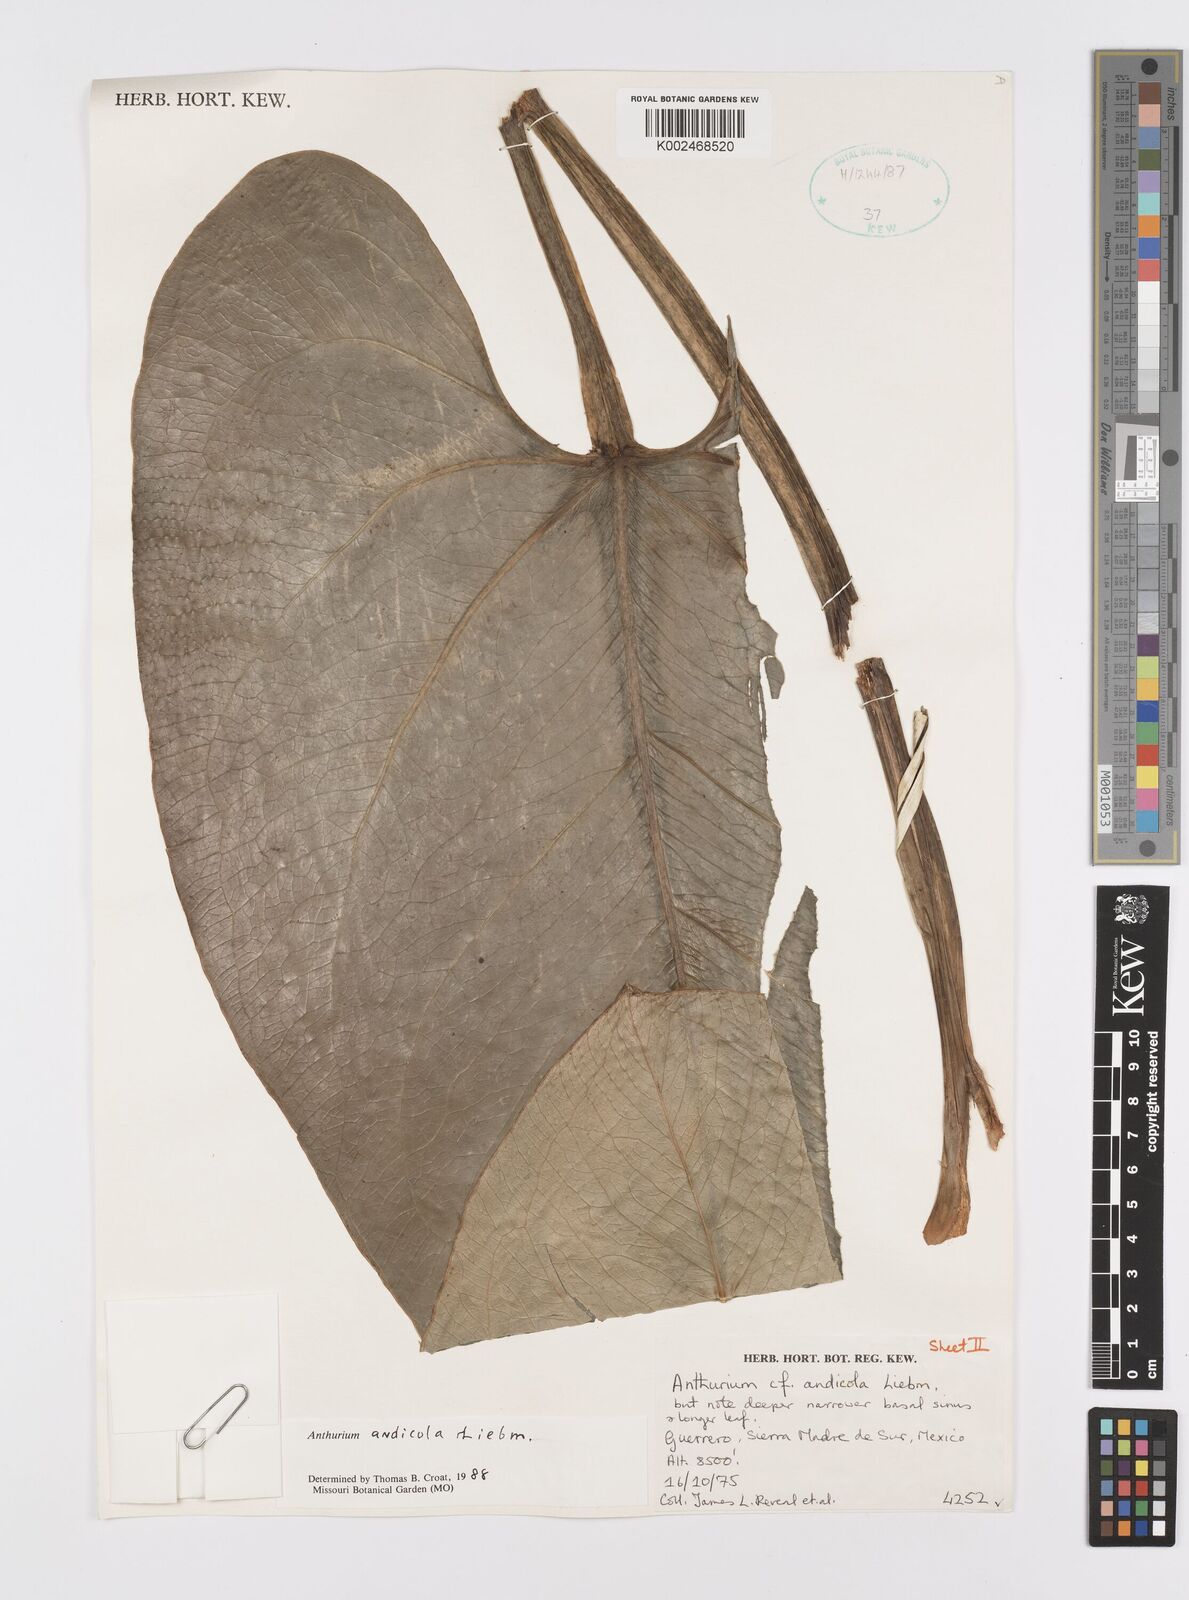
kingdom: Plantae
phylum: Tracheophyta
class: Liliopsida
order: Alismatales
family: Araceae
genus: Anthurium
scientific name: Anthurium andicola
